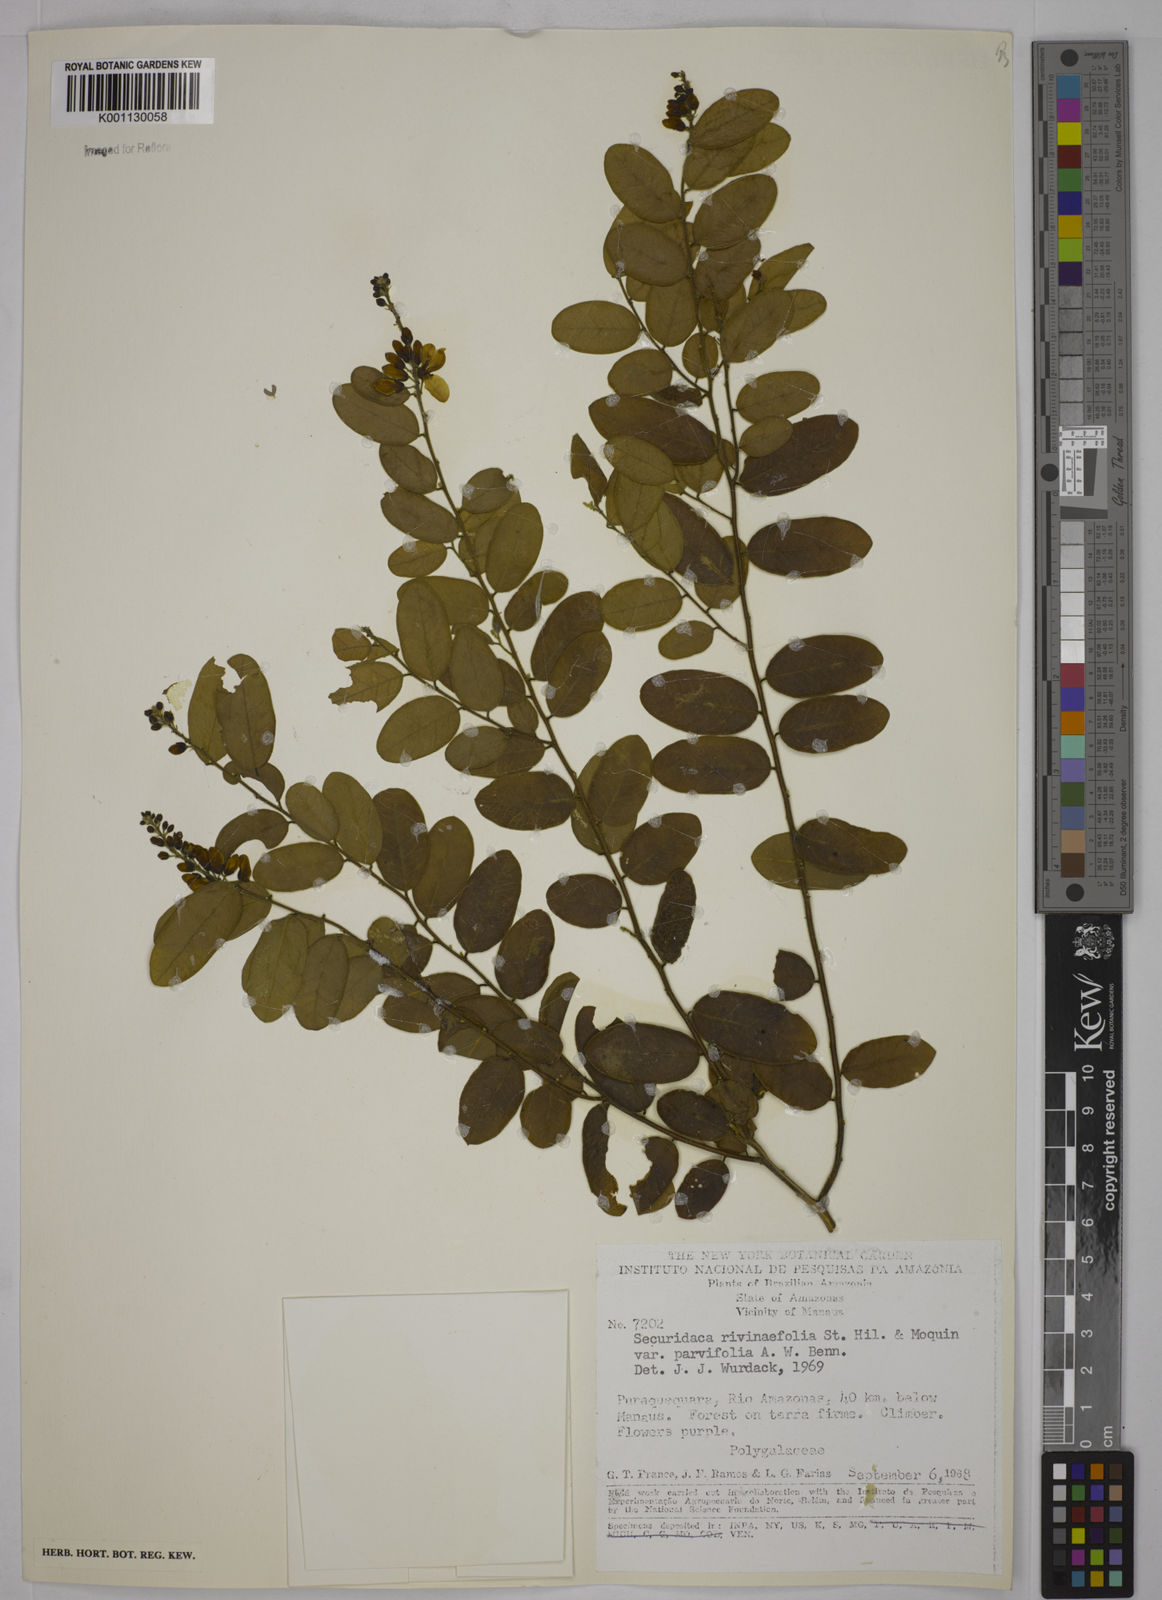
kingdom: Plantae
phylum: Tracheophyta
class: Magnoliopsida
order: Fabales
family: Polygalaceae
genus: Securidaca
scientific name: Securidaca rivinifolia
